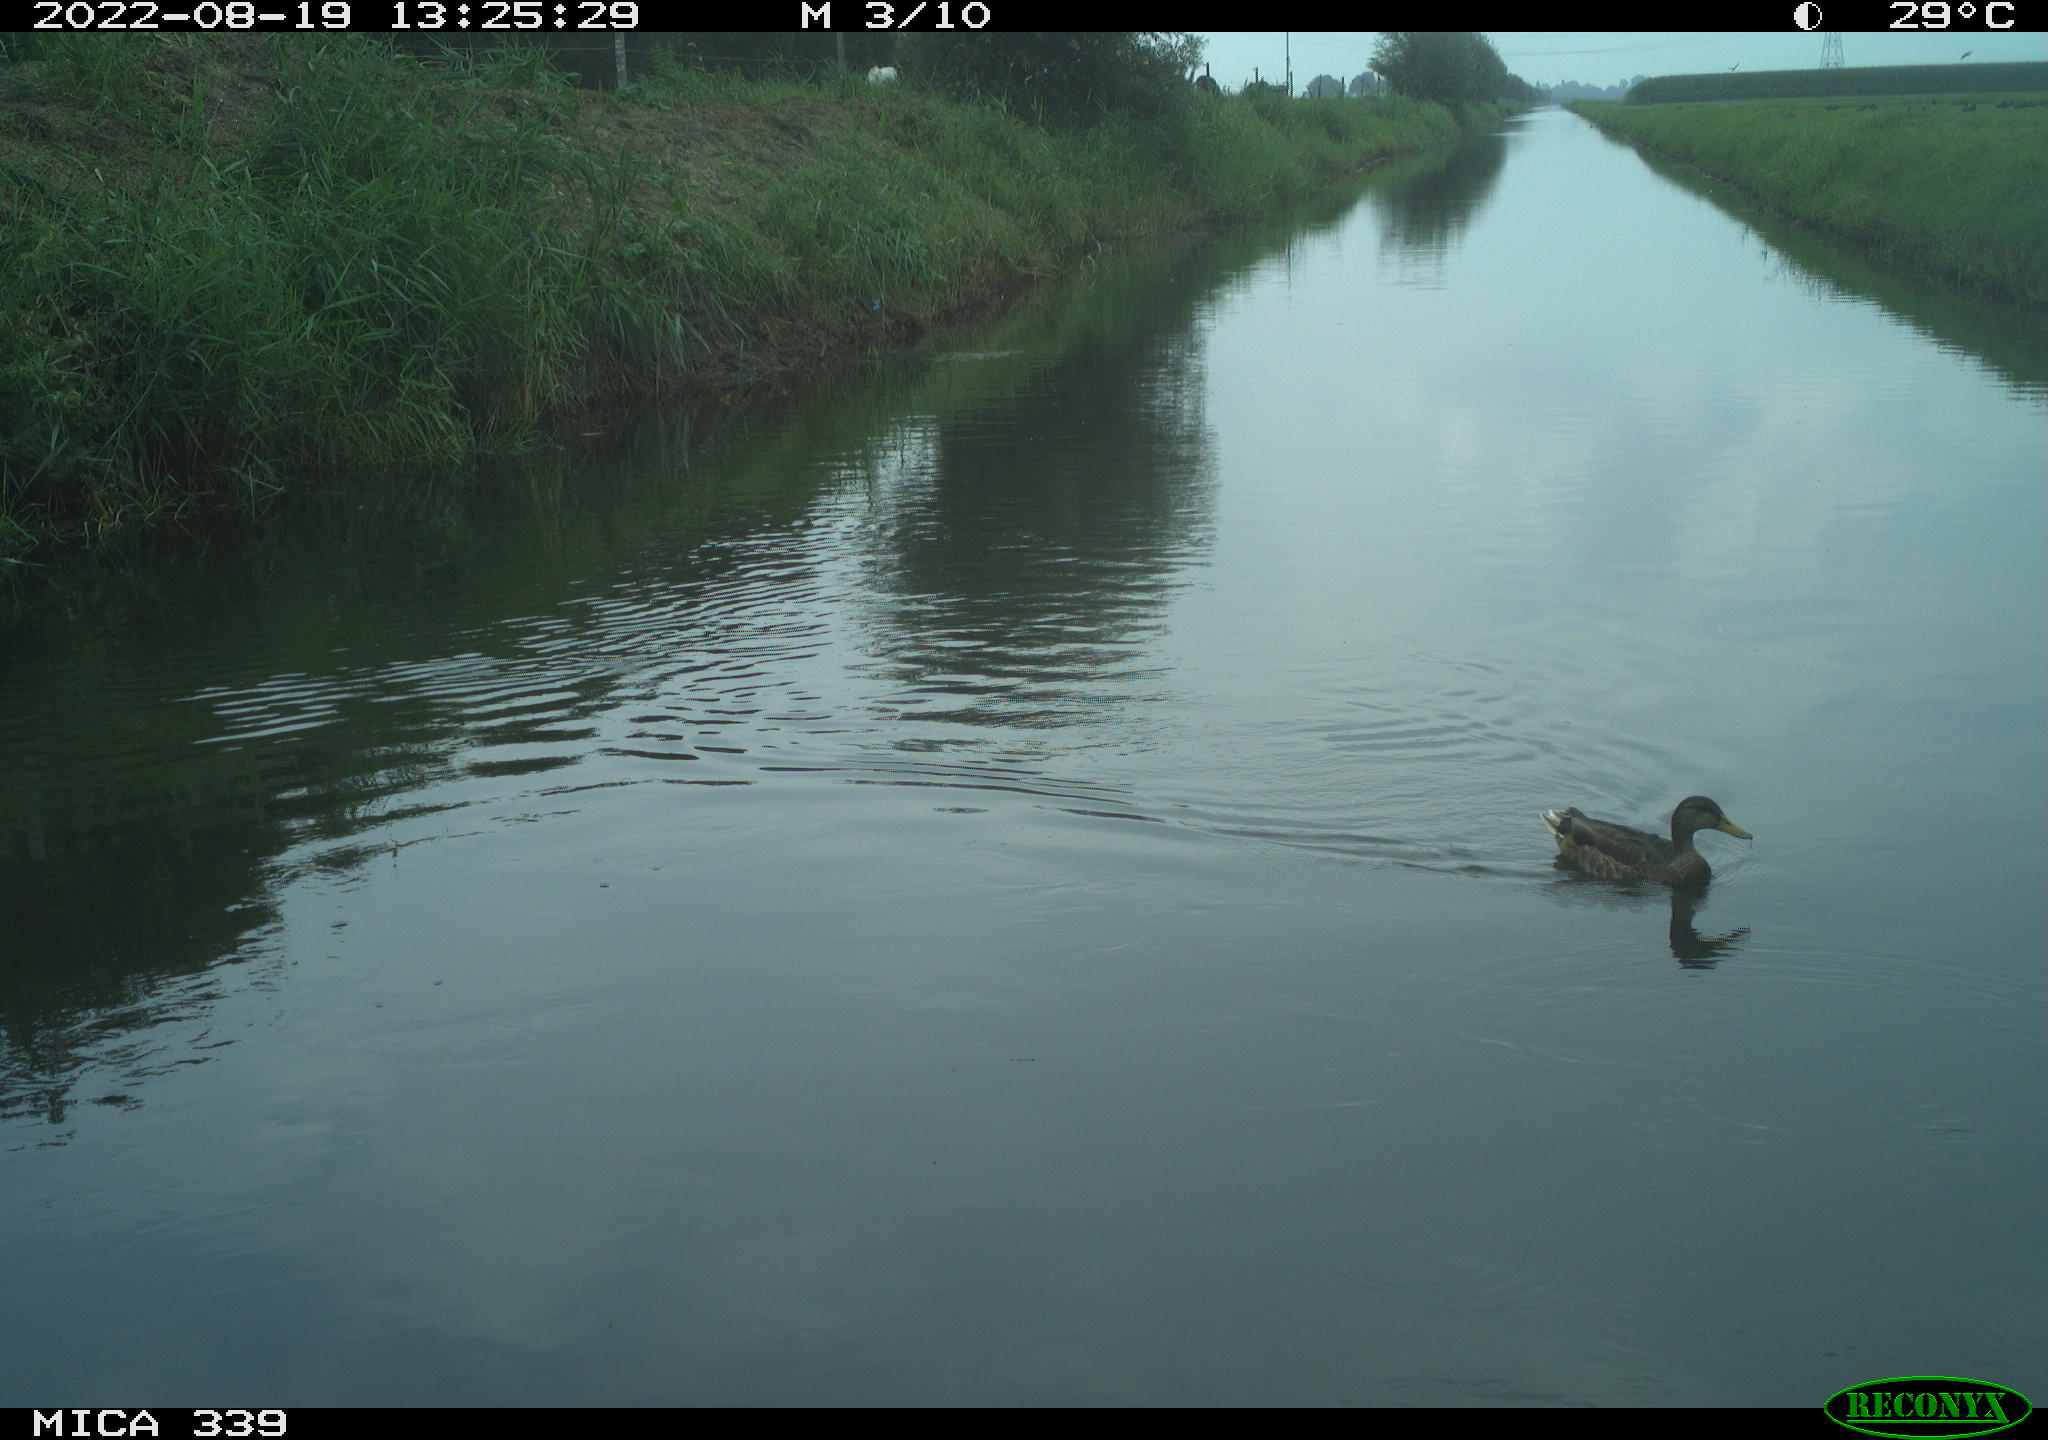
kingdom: Animalia
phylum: Chordata
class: Aves
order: Anseriformes
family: Anatidae
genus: Anas
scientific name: Anas platyrhynchos
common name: Mallard
